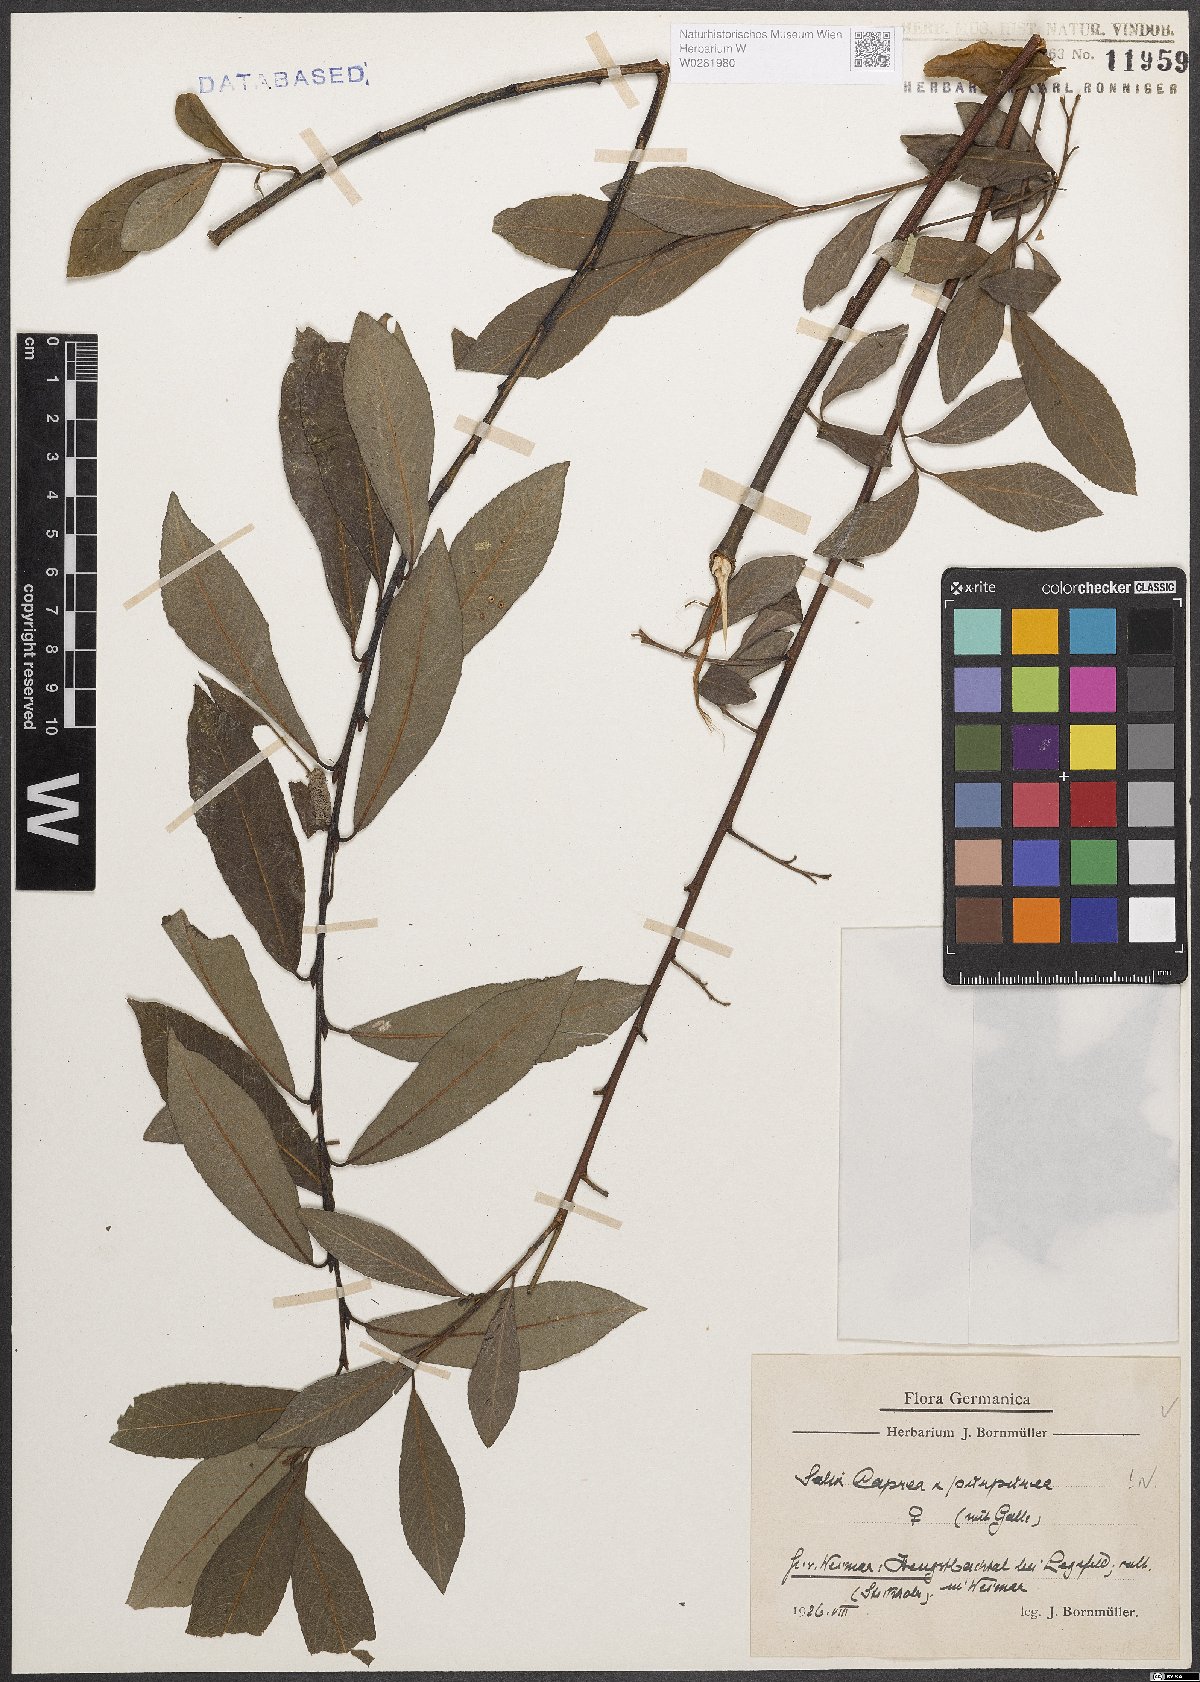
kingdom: Plantae
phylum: Tracheophyta
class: Magnoliopsida
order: Malpighiales
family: Salicaceae
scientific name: Salicaceae
